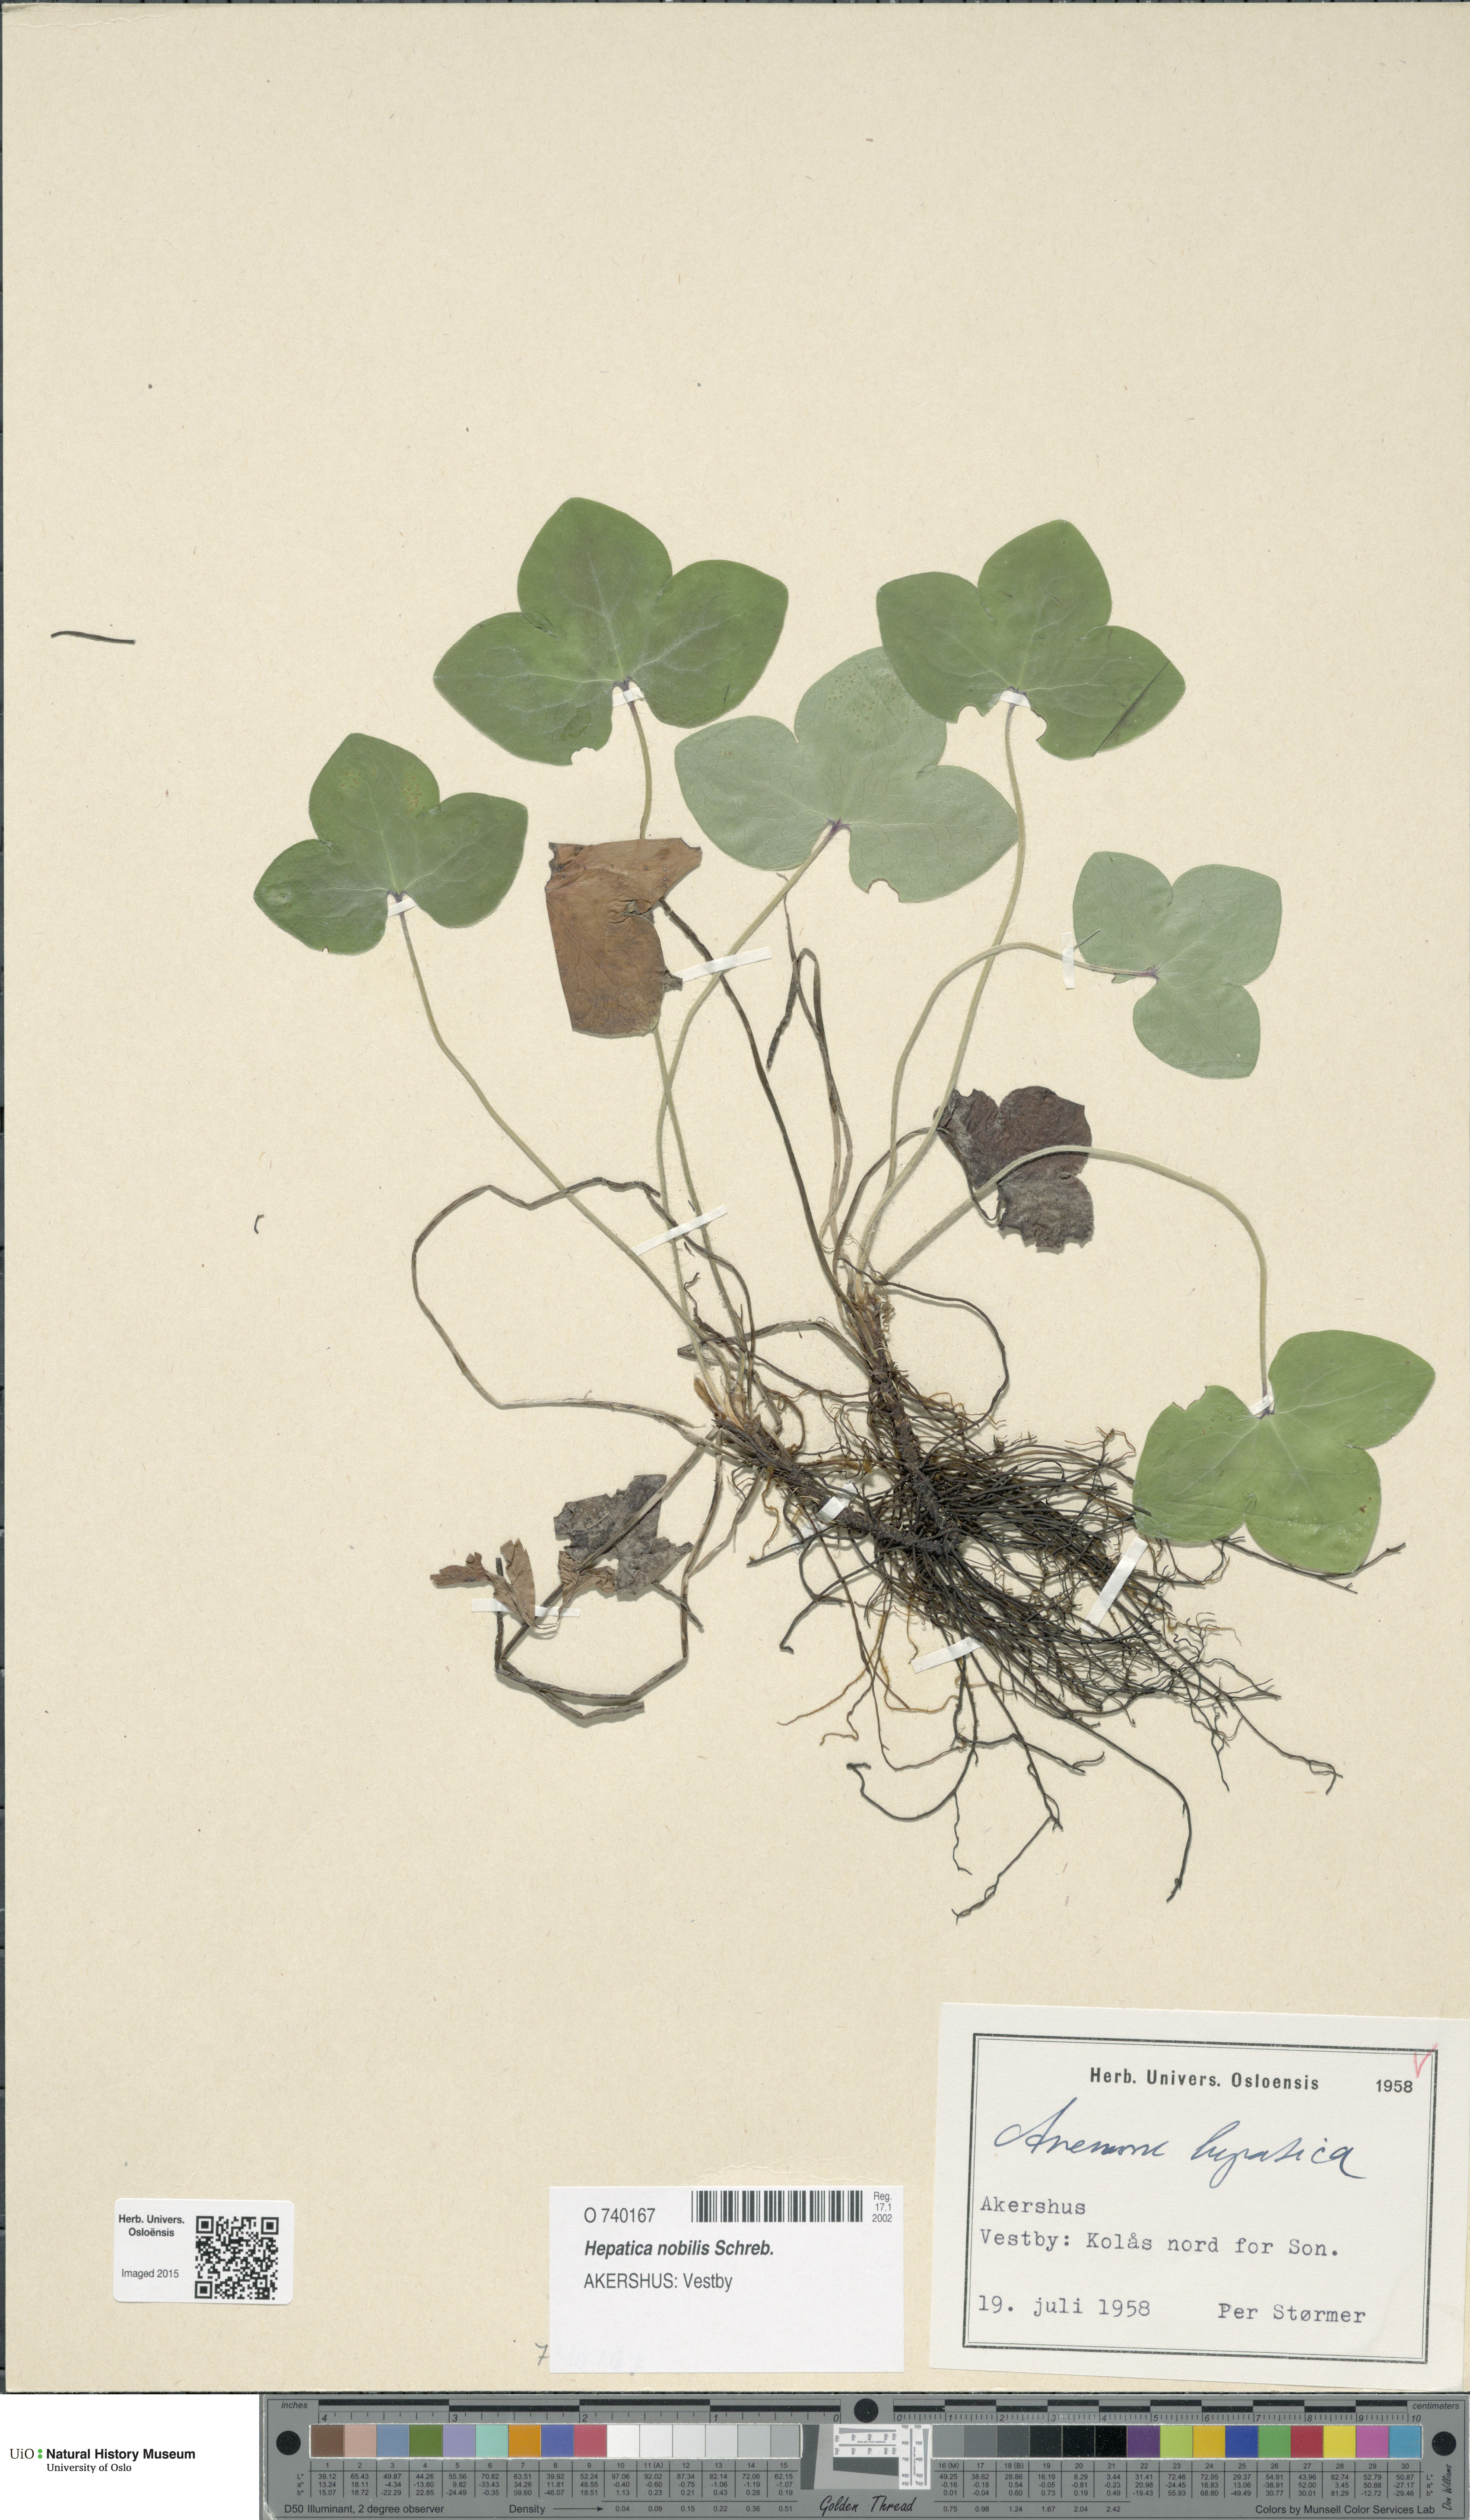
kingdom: Plantae
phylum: Tracheophyta
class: Magnoliopsida
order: Ranunculales
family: Ranunculaceae
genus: Hepatica
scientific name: Hepatica nobilis
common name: Liverleaf
